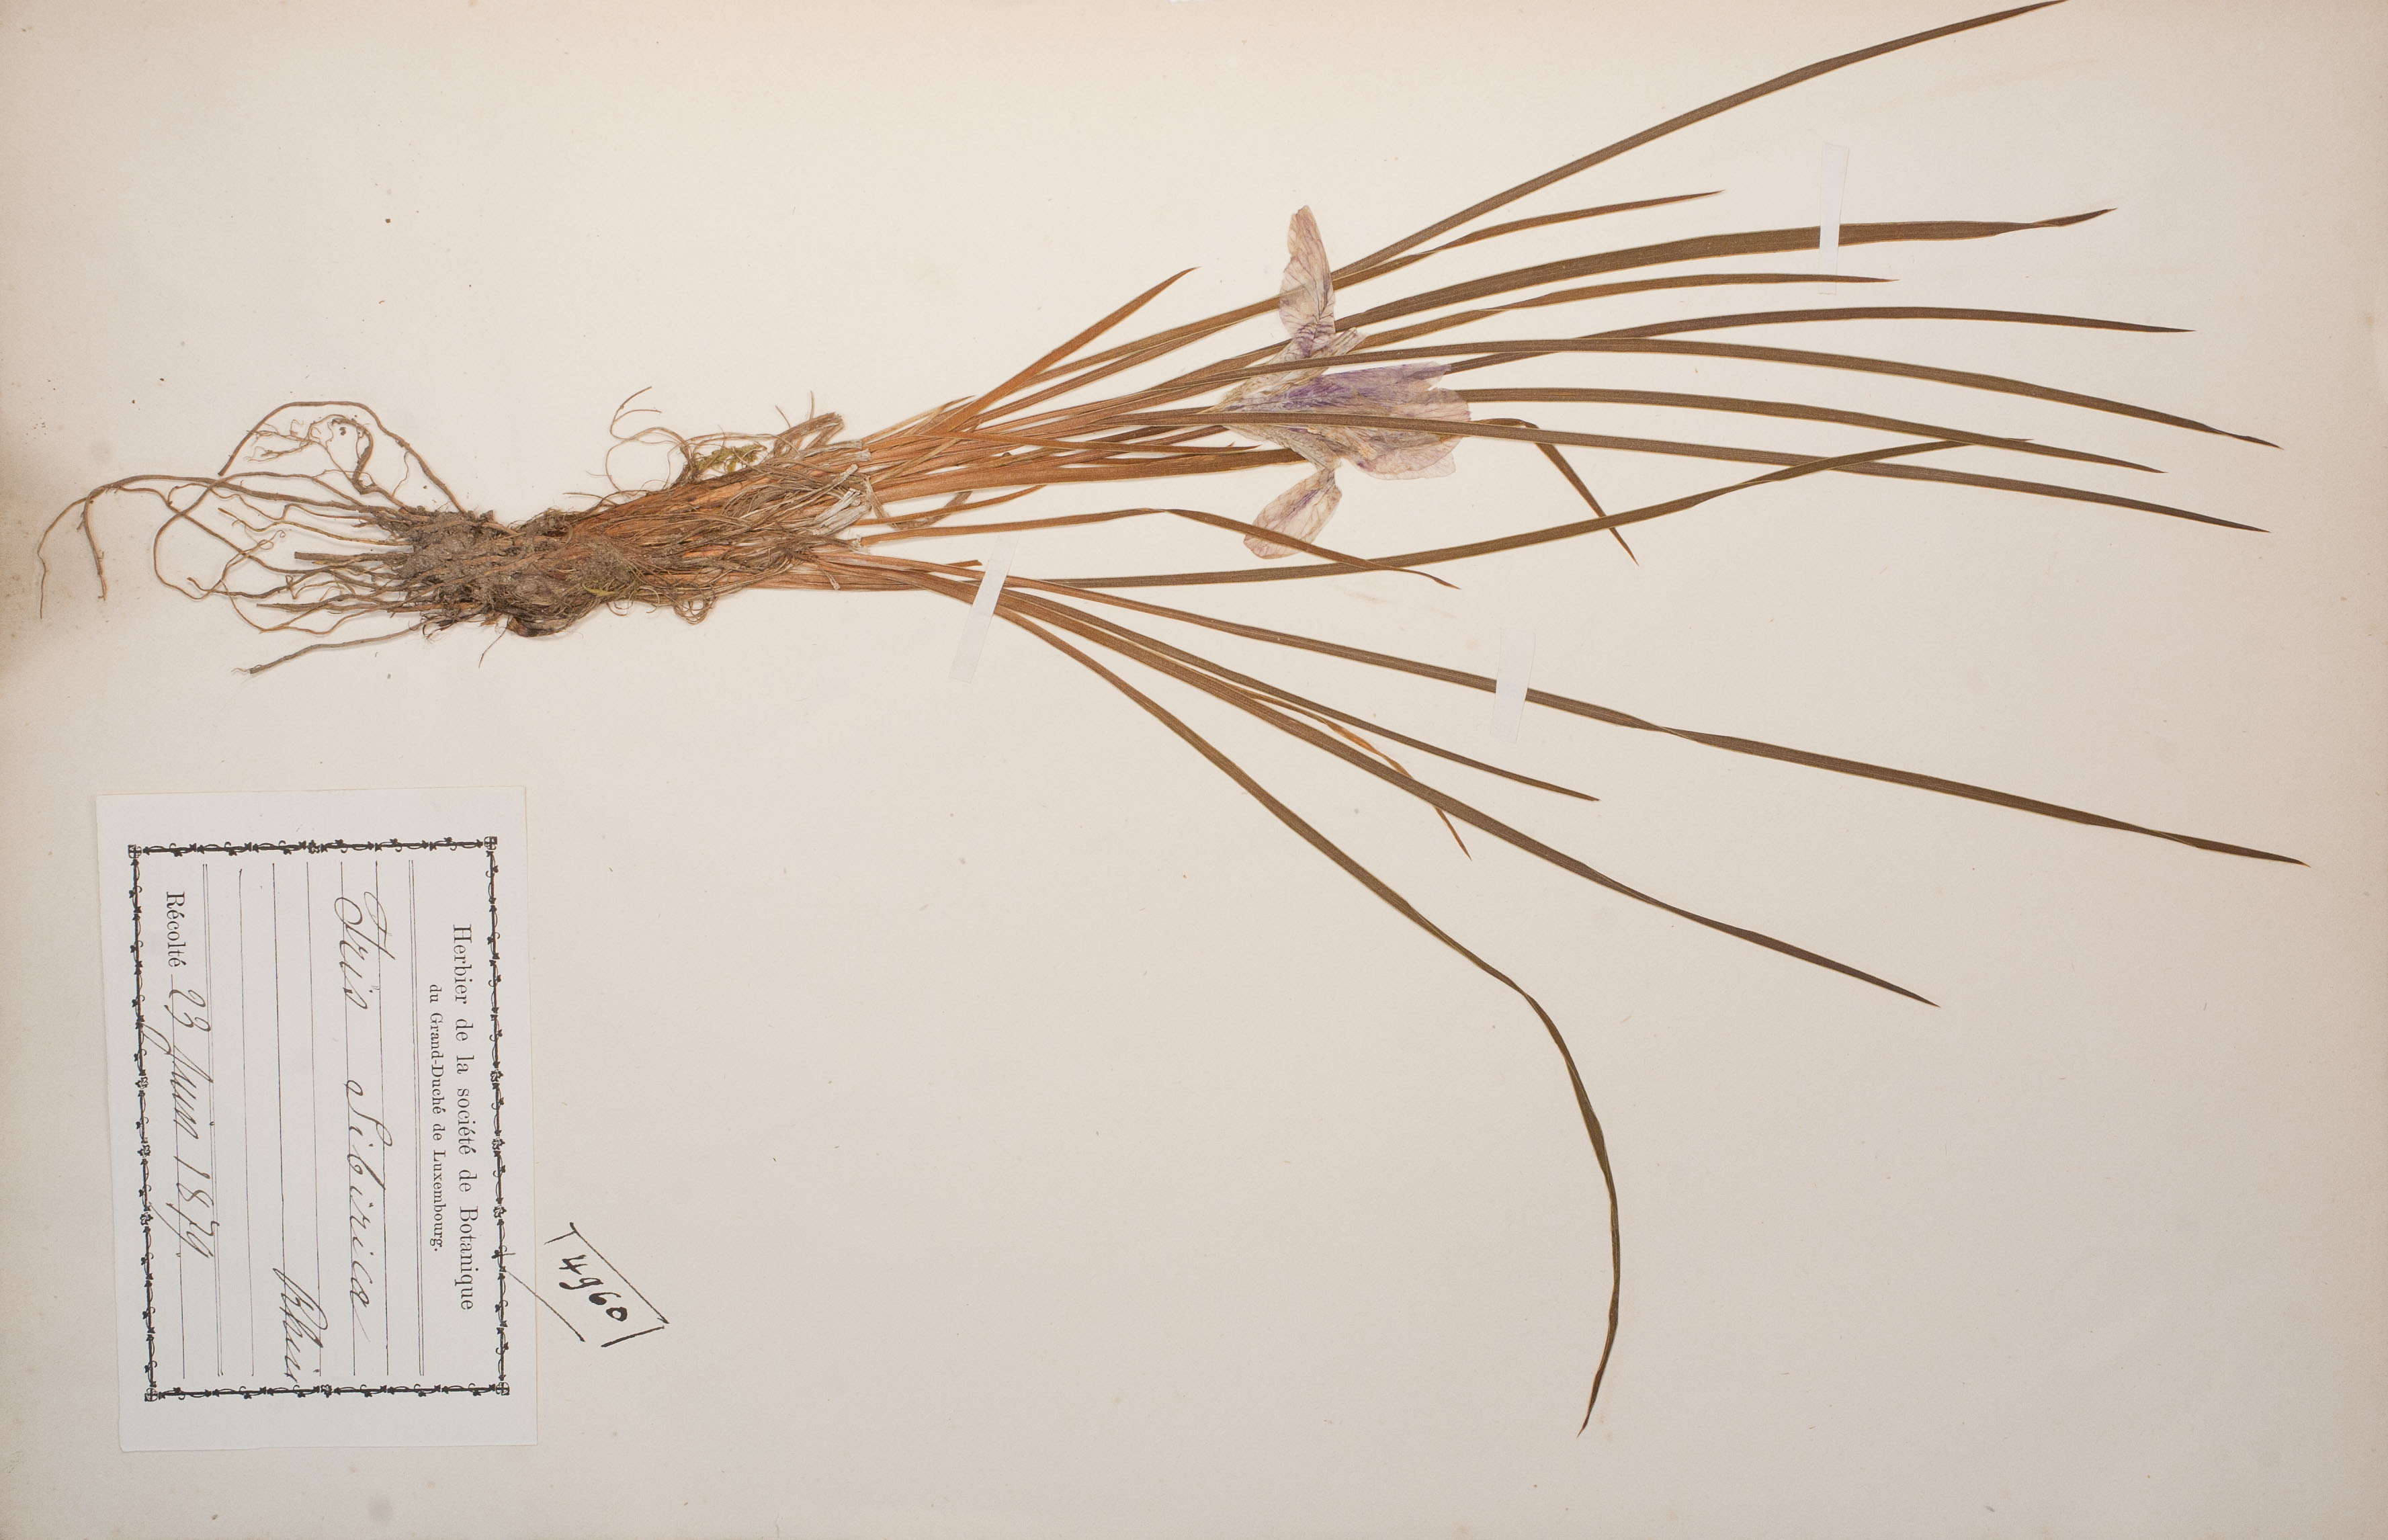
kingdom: Animalia
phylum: Arthropoda
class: Insecta
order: Mantodea
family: Eremiaphilidae
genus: Iris
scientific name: Iris
